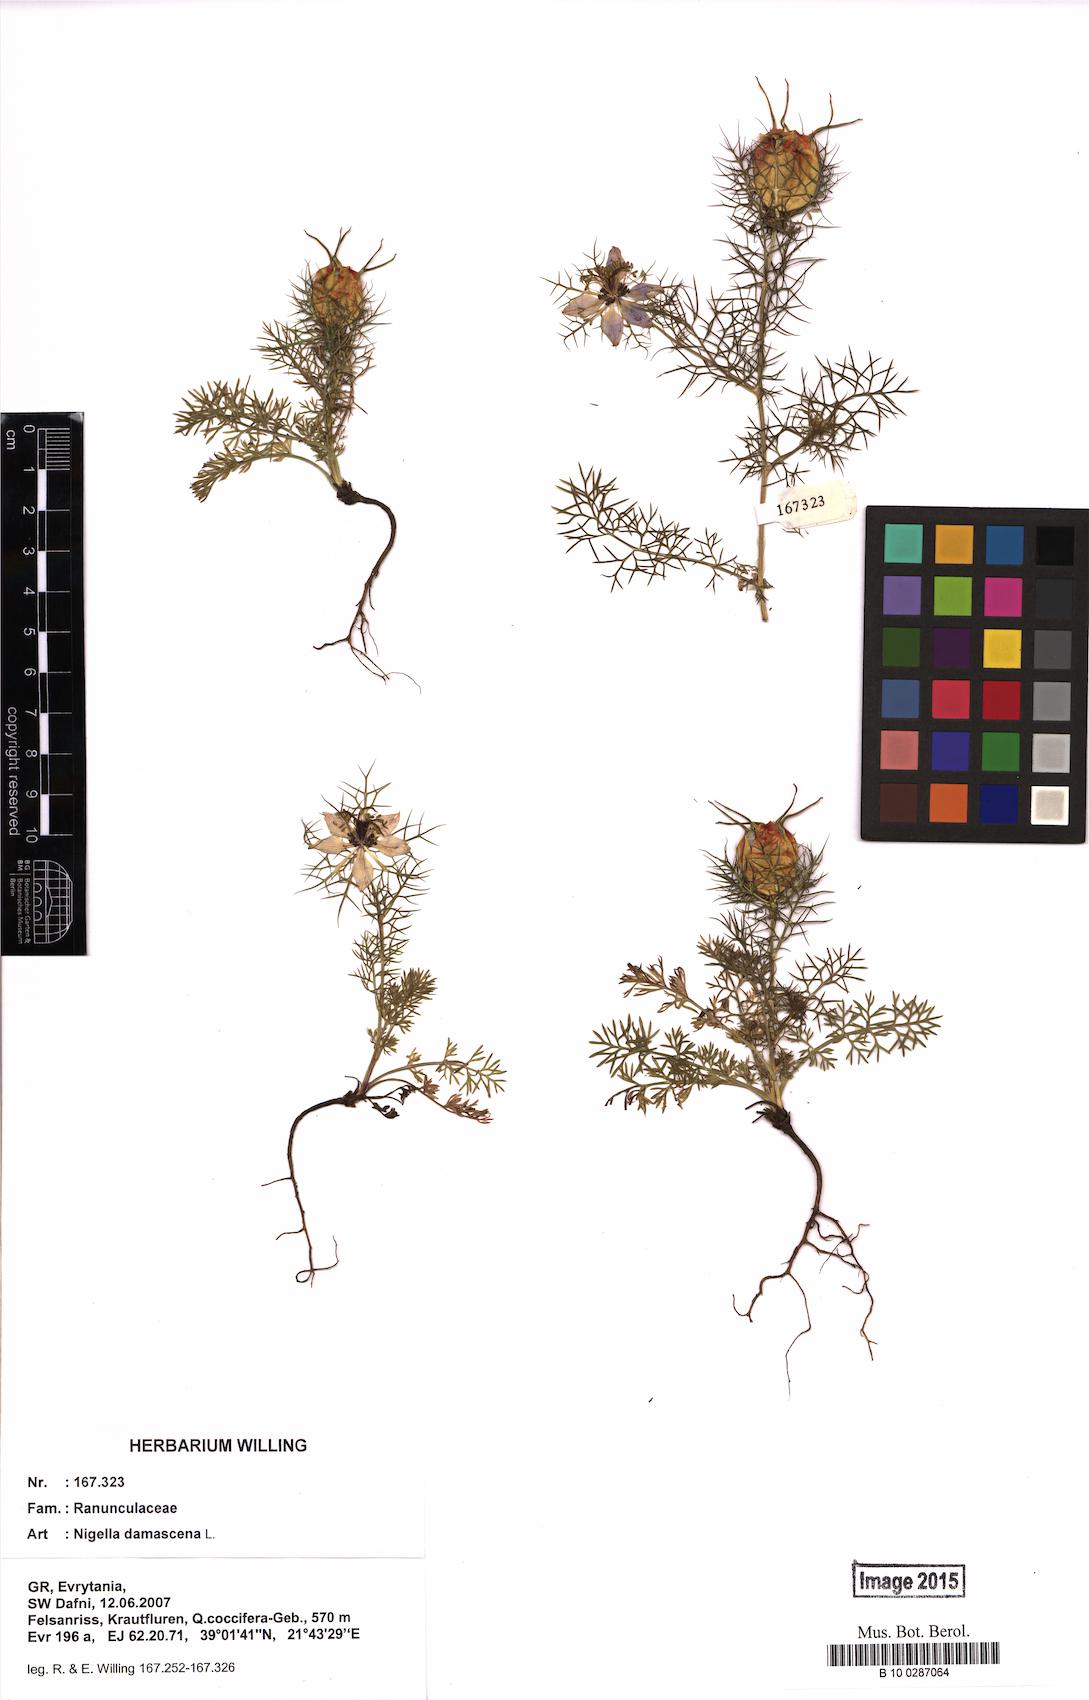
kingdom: Plantae
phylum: Tracheophyta
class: Magnoliopsida
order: Ranunculales
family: Ranunculaceae
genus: Nigella
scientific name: Nigella damascena
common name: Love-in-a-mist
